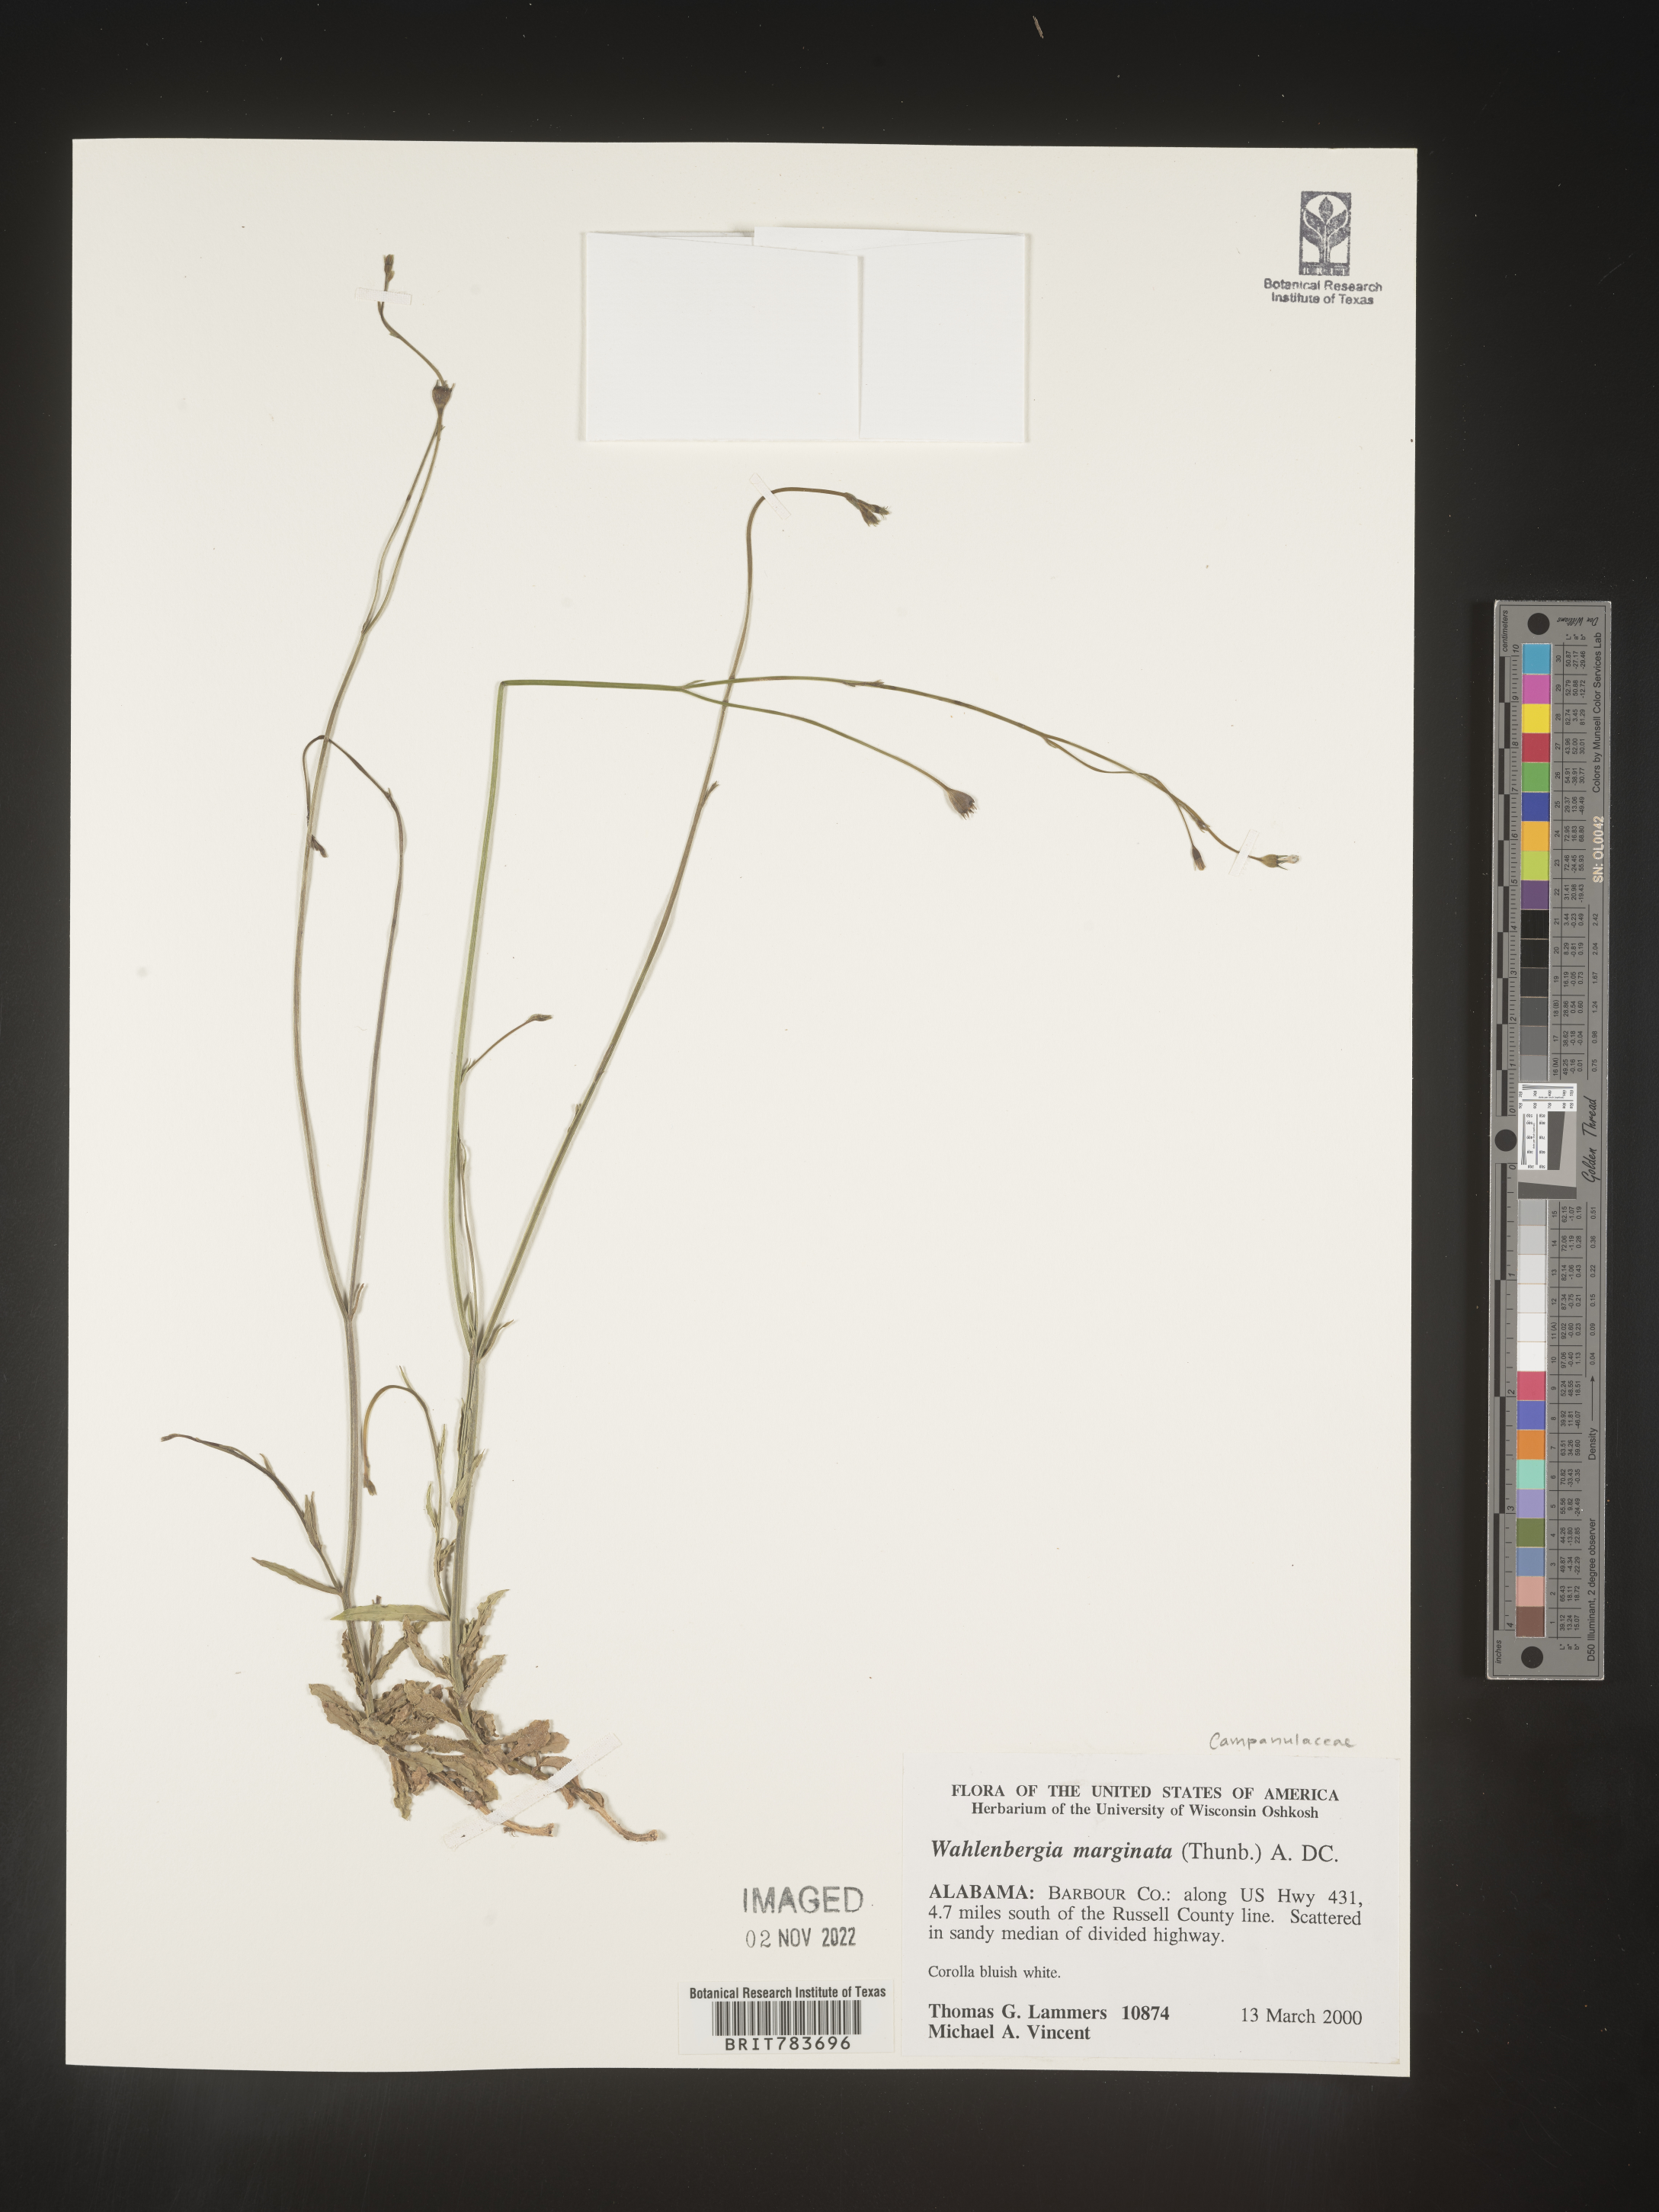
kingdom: Plantae
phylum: Tracheophyta
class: Magnoliopsida
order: Asterales
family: Campanulaceae
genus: Wahlenbergia
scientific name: Wahlenbergia marginata
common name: Southern rockbell
